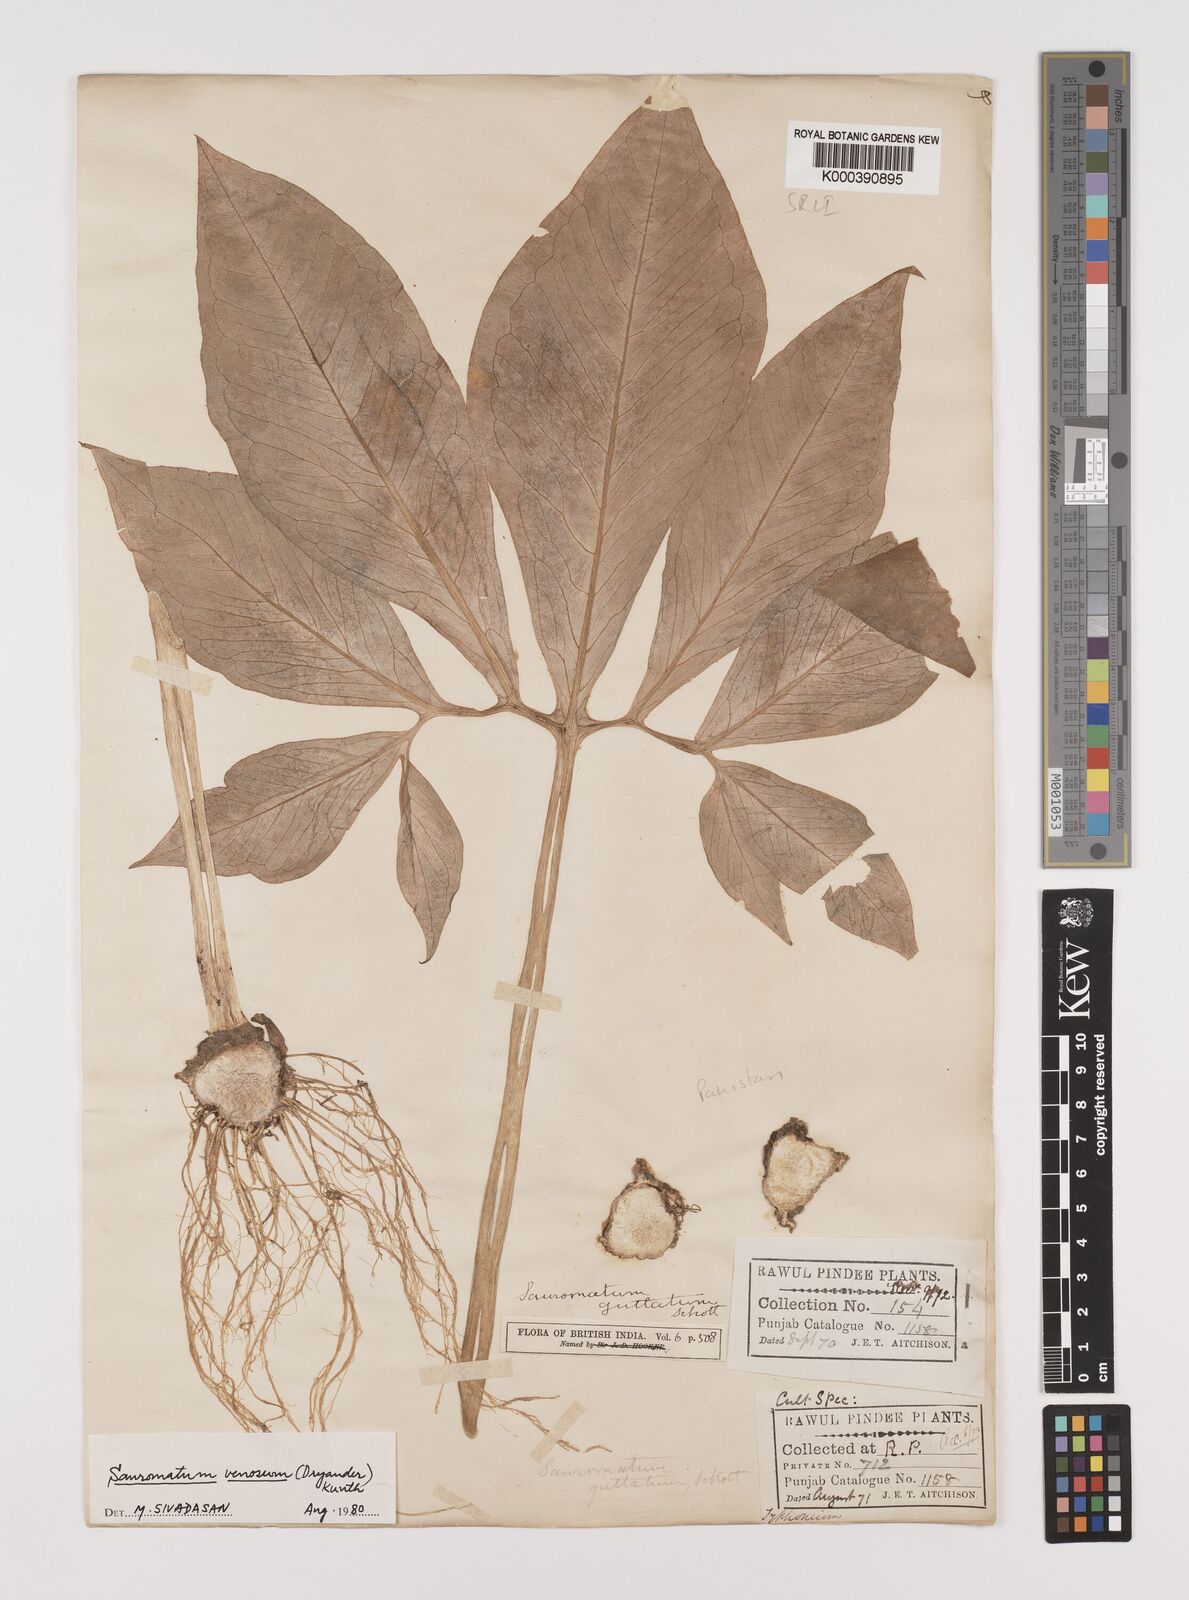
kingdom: Plantae
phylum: Tracheophyta
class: Liliopsida
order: Alismatales
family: Araceae
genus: Sauromatum
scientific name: Sauromatum venosum
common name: Voodoo lily
